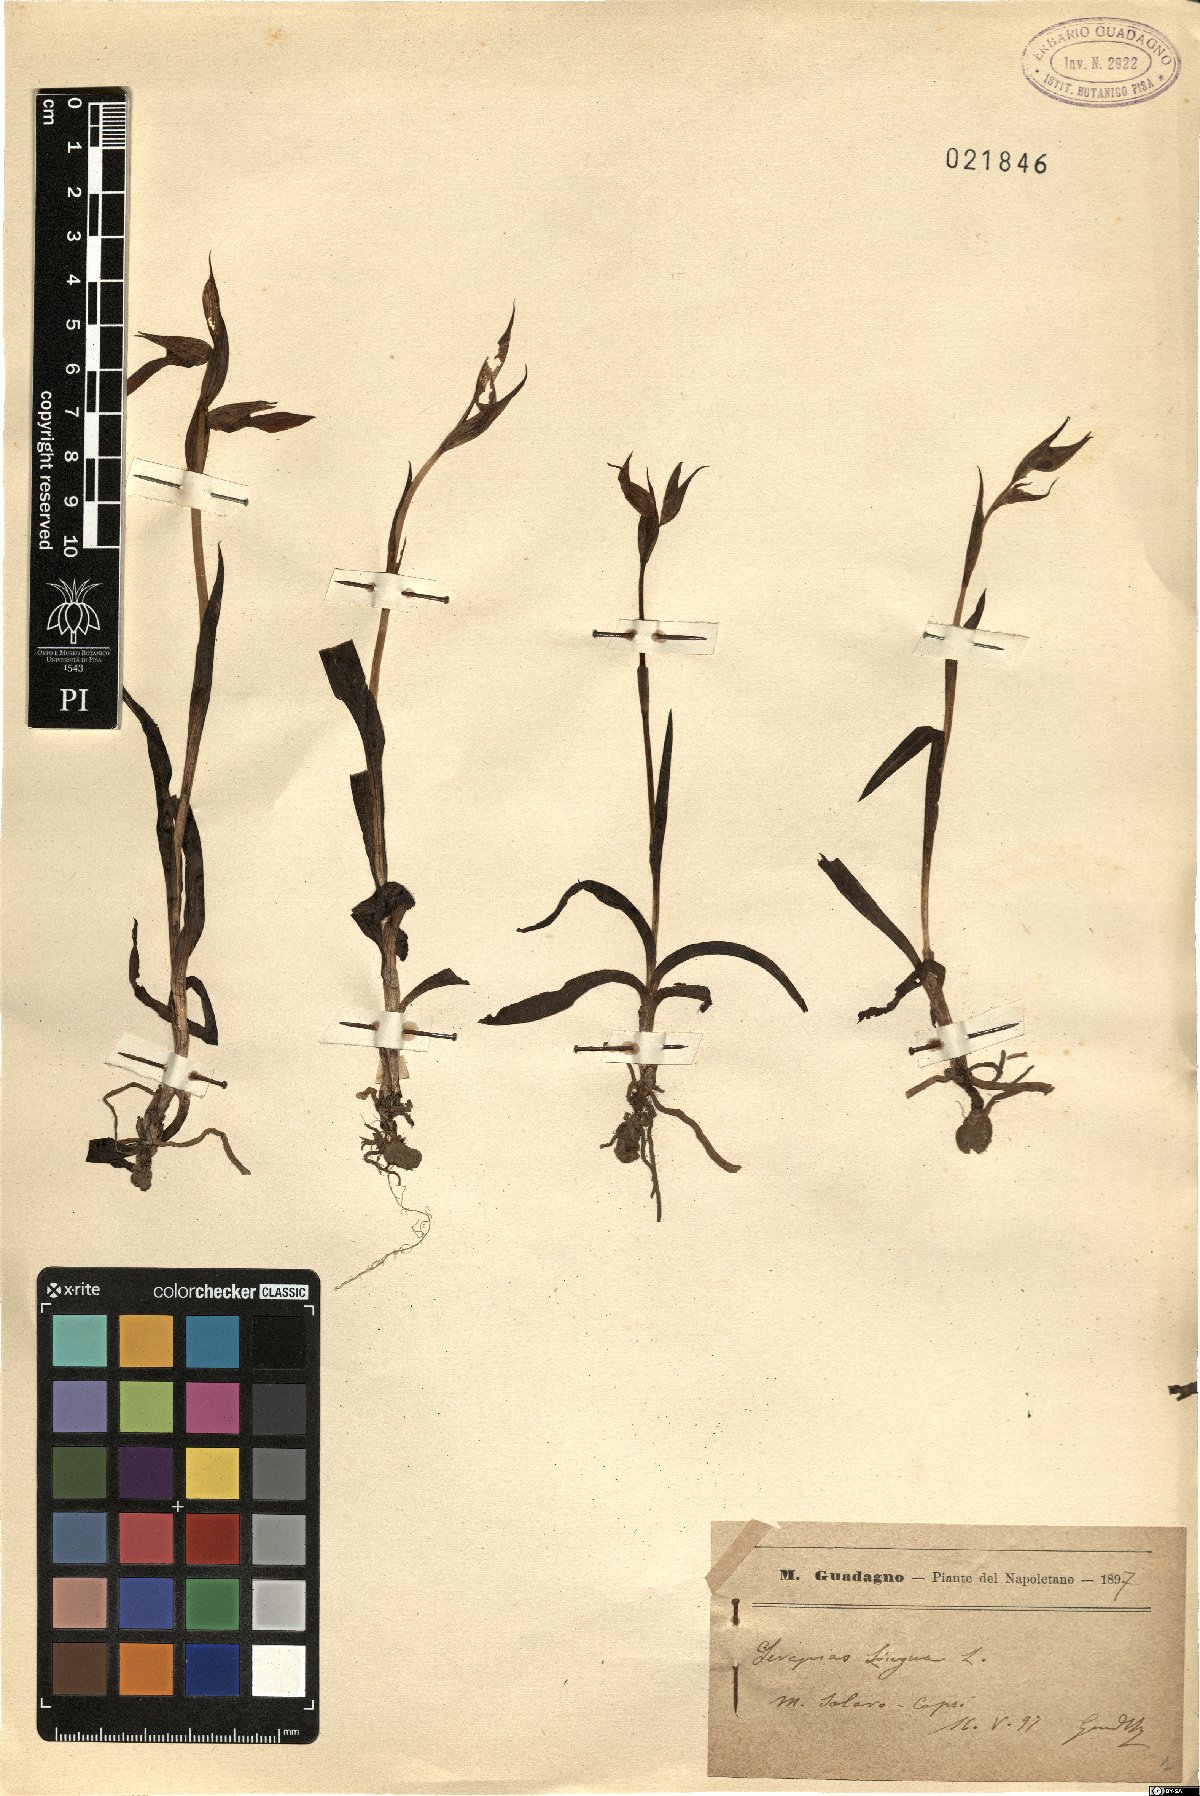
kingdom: Plantae
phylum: Tracheophyta
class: Liliopsida
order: Asparagales
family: Orchidaceae
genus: Serapias
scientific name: Serapias lingua
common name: Tongue-orchid
